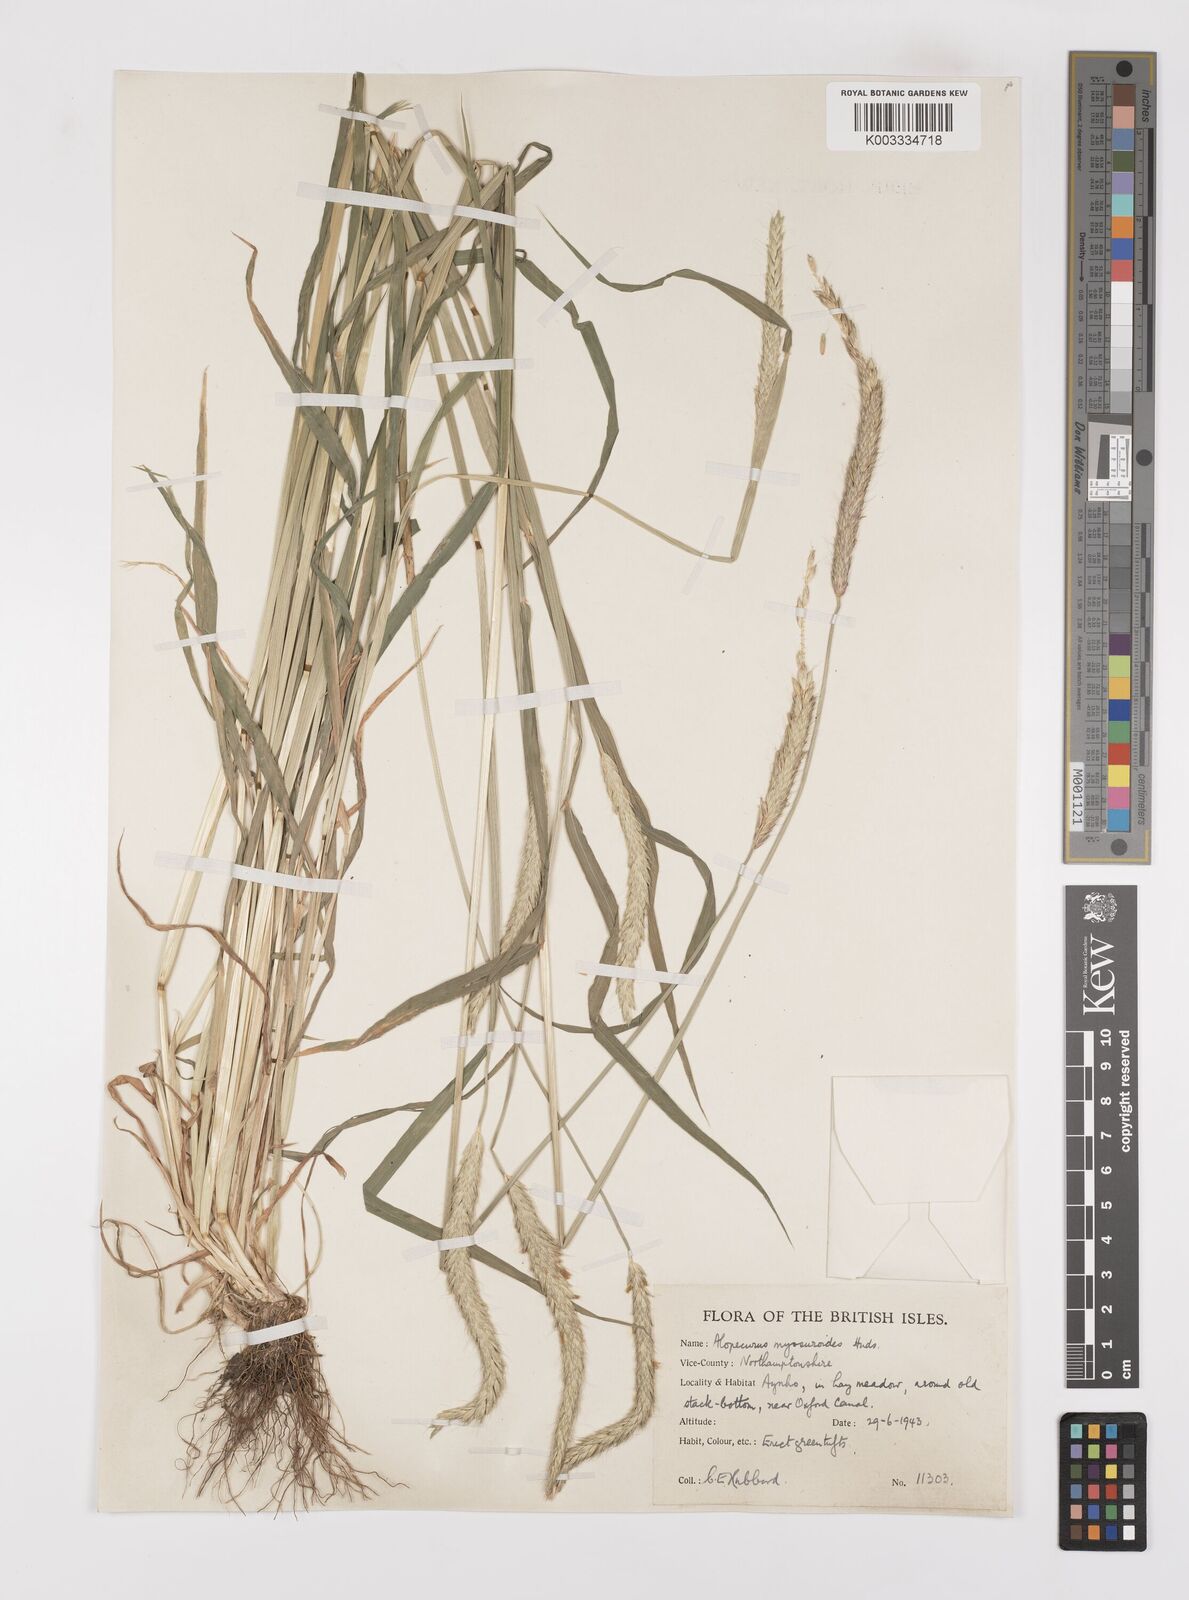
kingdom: Plantae
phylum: Tracheophyta
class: Liliopsida
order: Poales
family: Poaceae
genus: Alopecurus
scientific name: Alopecurus myosuroides
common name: Black-grass
